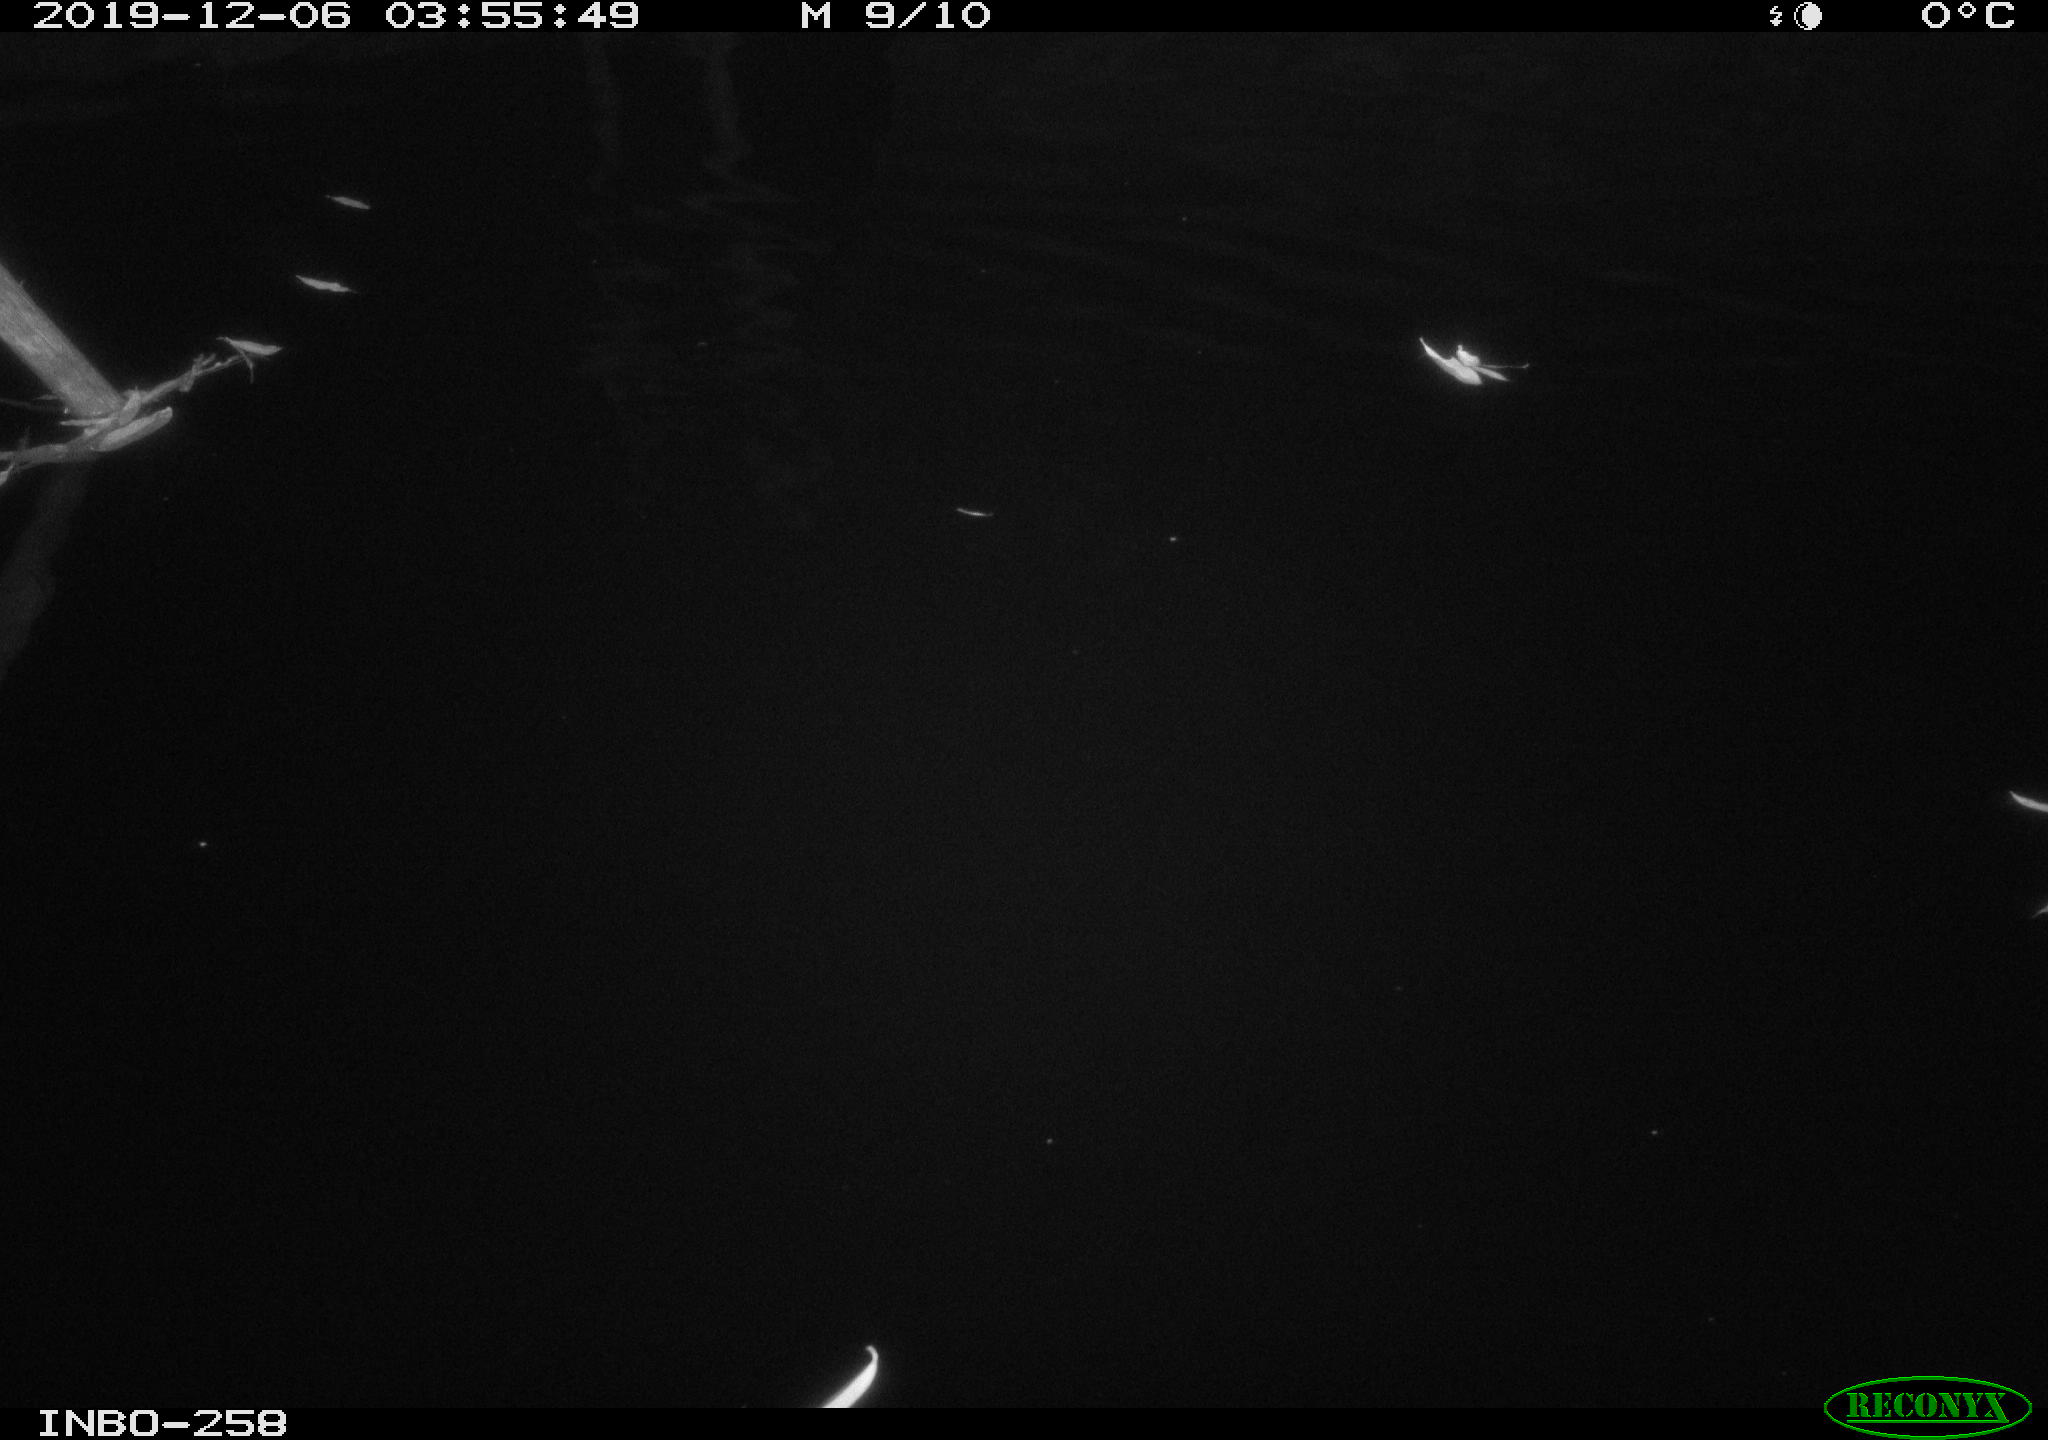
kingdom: Animalia
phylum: Chordata
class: Aves
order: Anseriformes
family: Anatidae
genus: Anas
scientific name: Anas platyrhynchos
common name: Mallard
